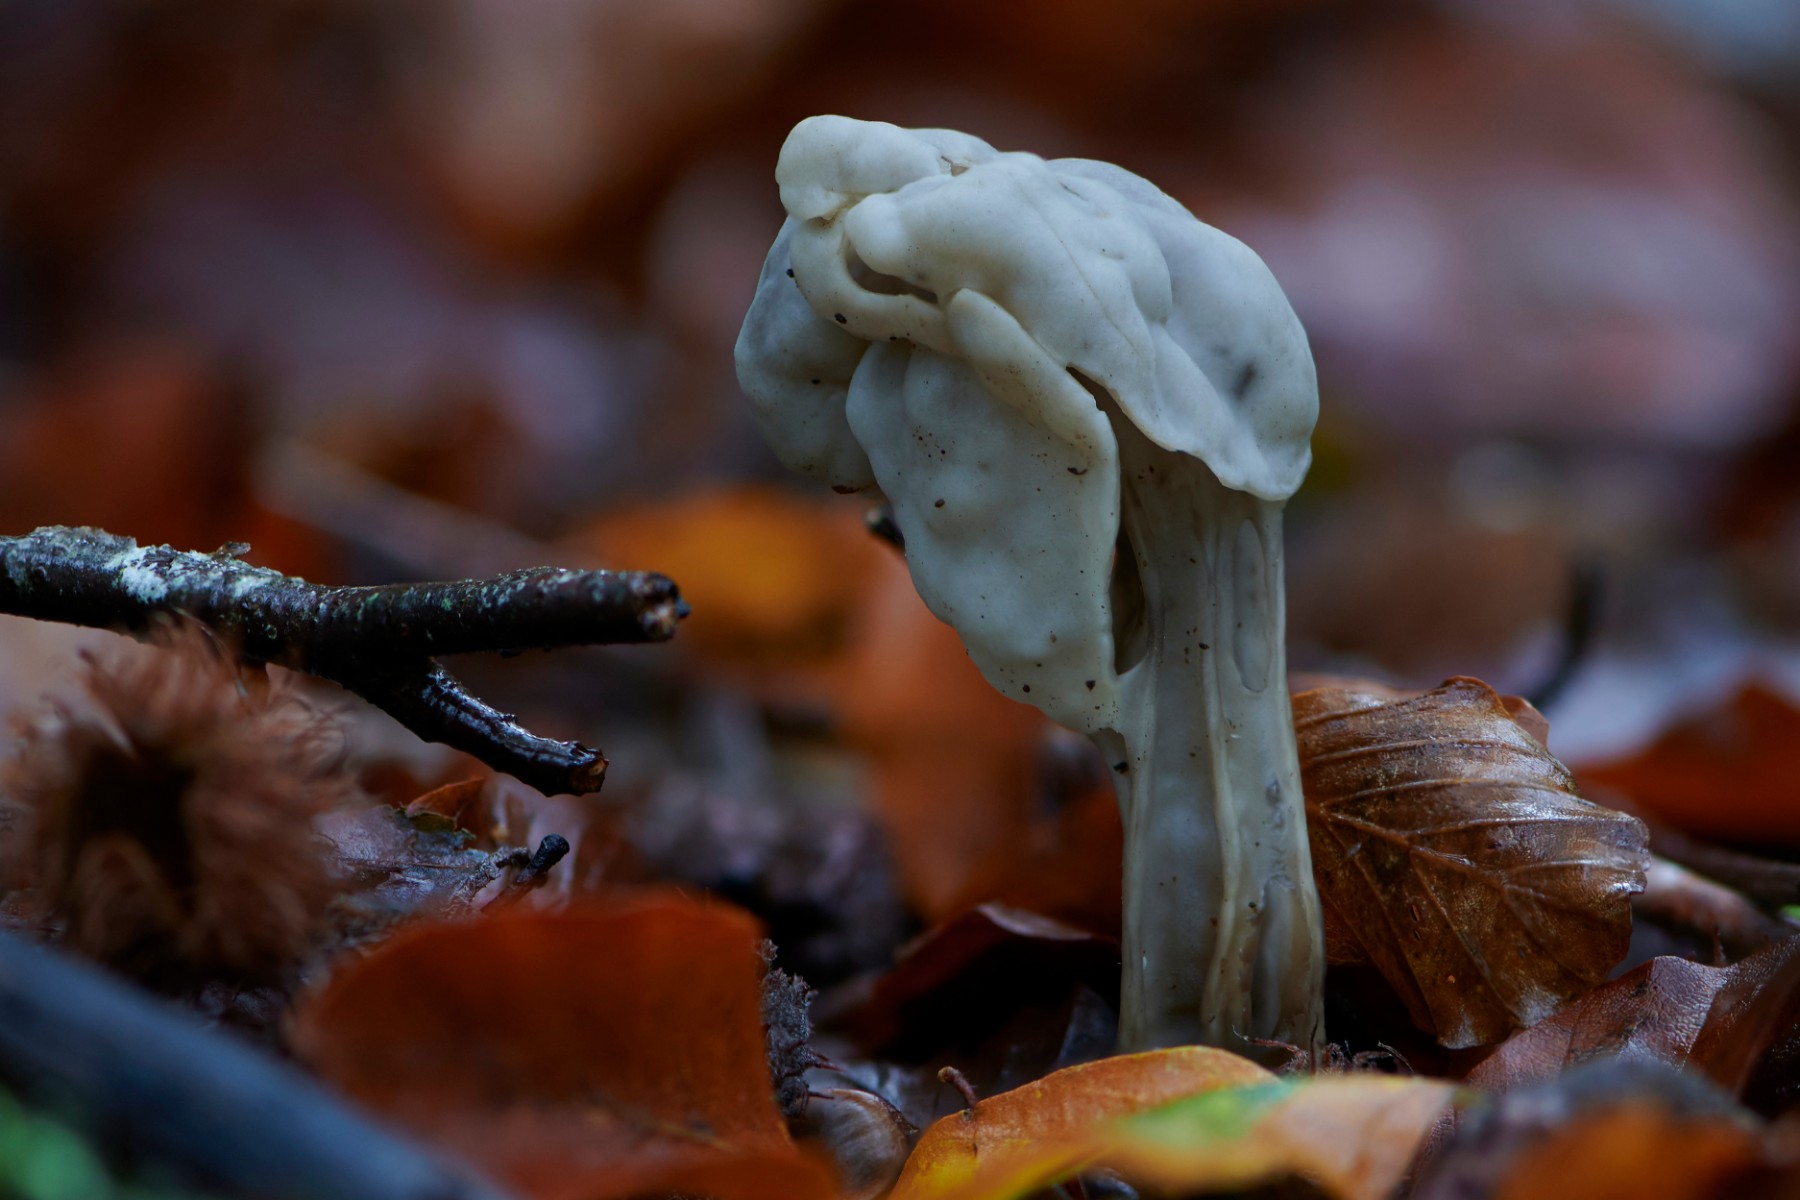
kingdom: Fungi
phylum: Ascomycota
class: Pezizomycetes
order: Pezizales
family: Helvellaceae
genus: Helvella
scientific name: Helvella crispa
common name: kruset foldhat
